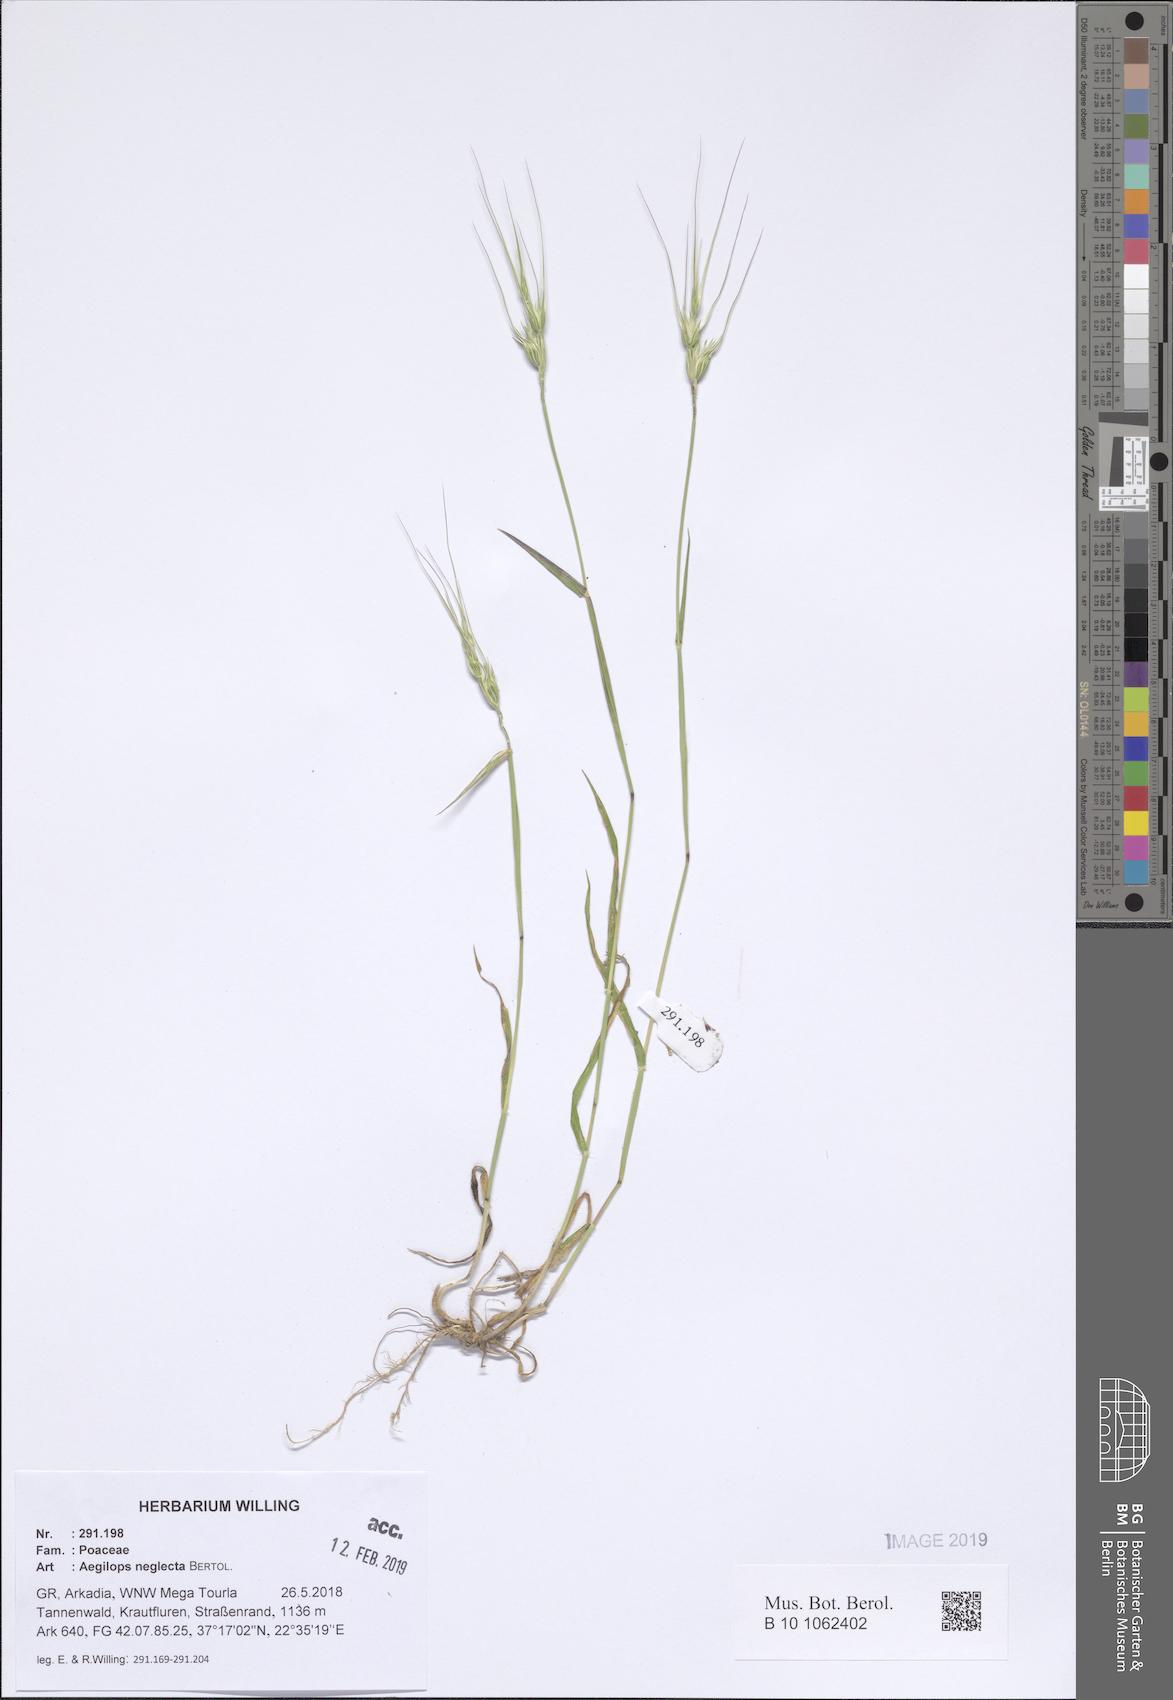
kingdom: Plantae
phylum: Tracheophyta
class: Liliopsida
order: Poales
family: Poaceae
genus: Aegilops
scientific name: Aegilops neglecta
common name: Three-awn goat grass
